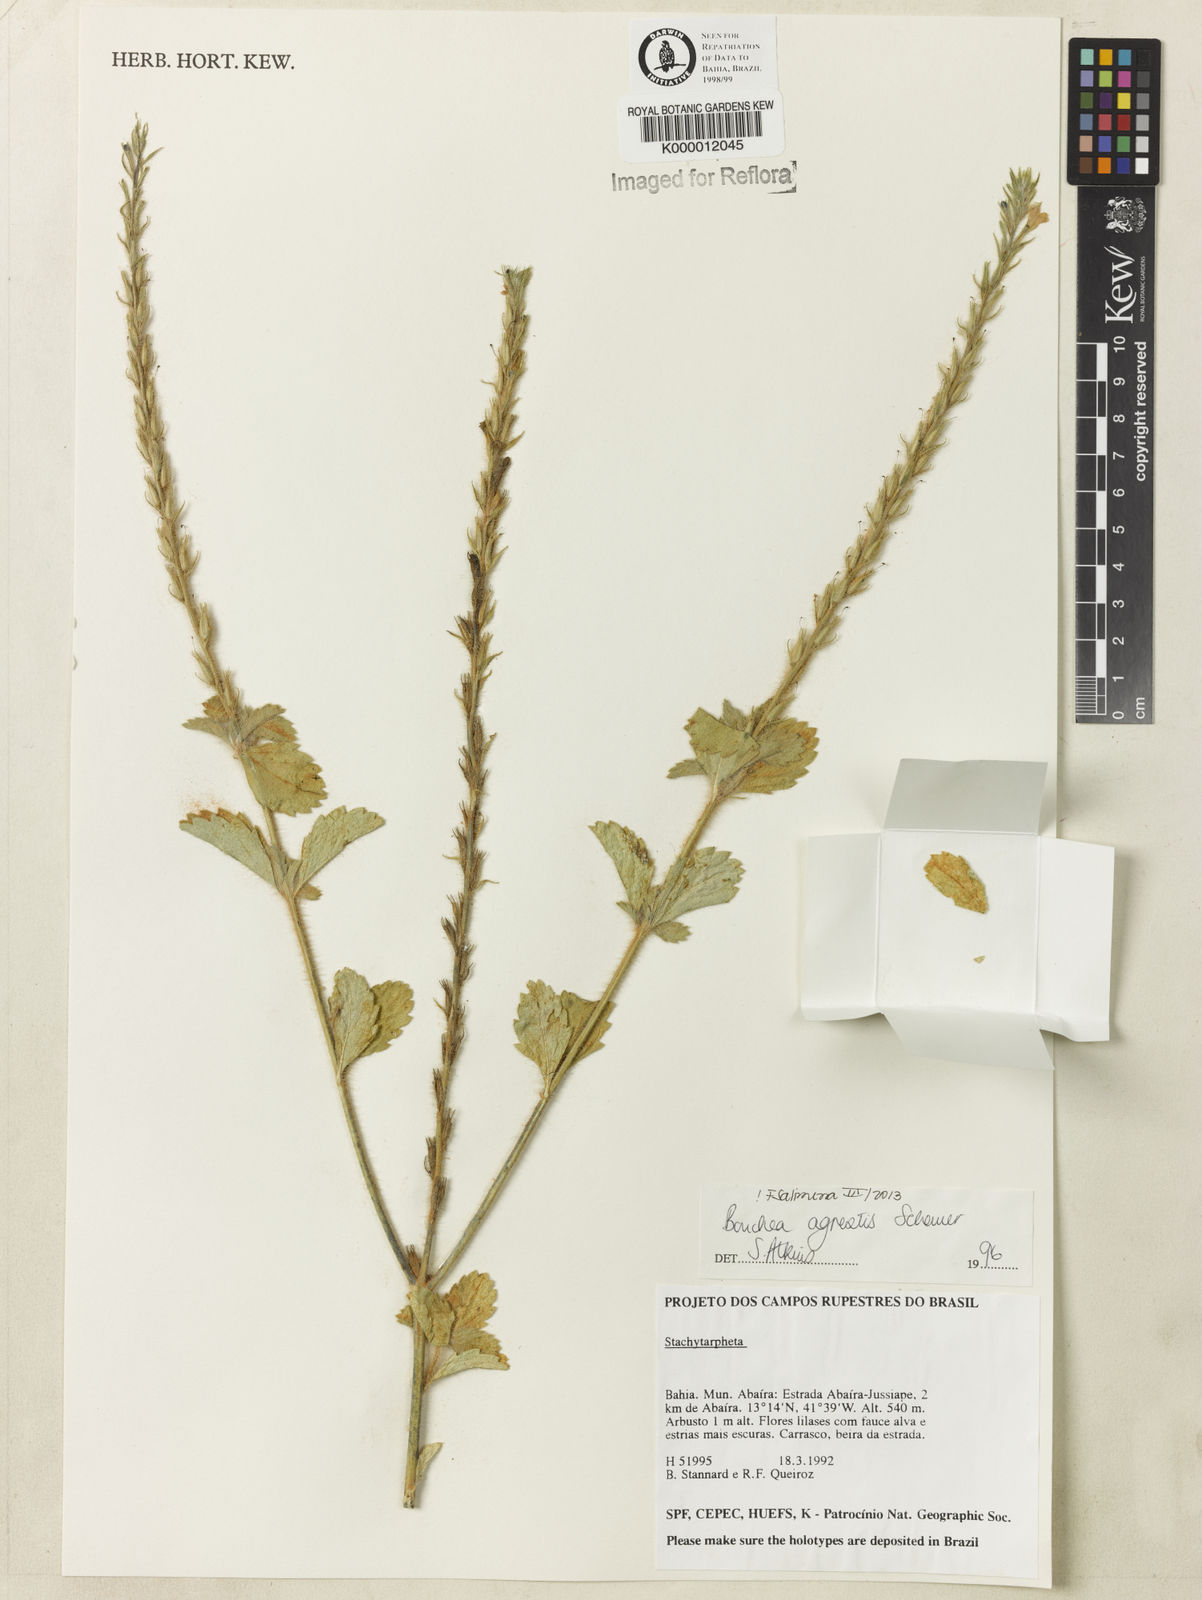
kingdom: Plantae
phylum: Tracheophyta
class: Magnoliopsida
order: Lamiales
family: Verbenaceae
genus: Bouchea
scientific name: Bouchea agrestis
